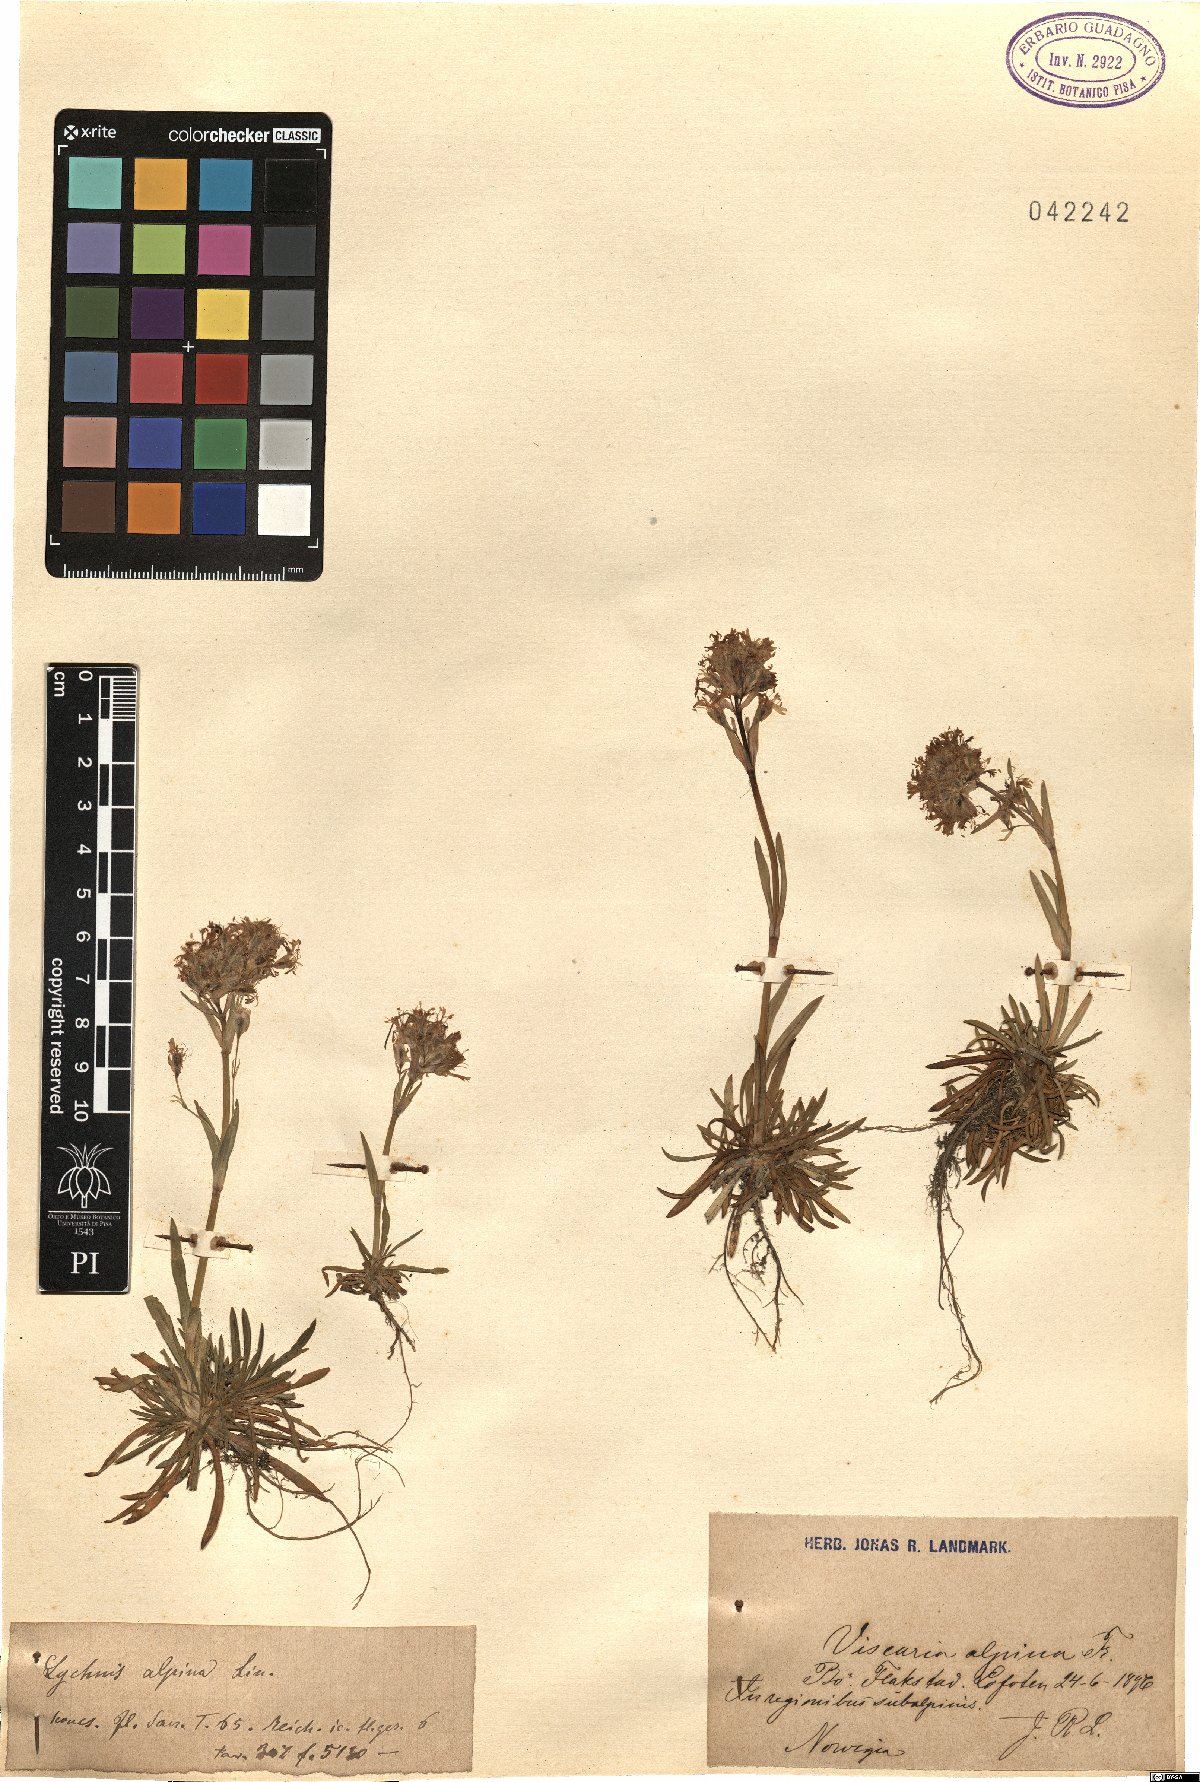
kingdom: Plantae
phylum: Tracheophyta
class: Magnoliopsida
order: Caryophyllales
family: Caryophyllaceae
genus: Viscaria
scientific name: Viscaria alpina
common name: Alpine campion
